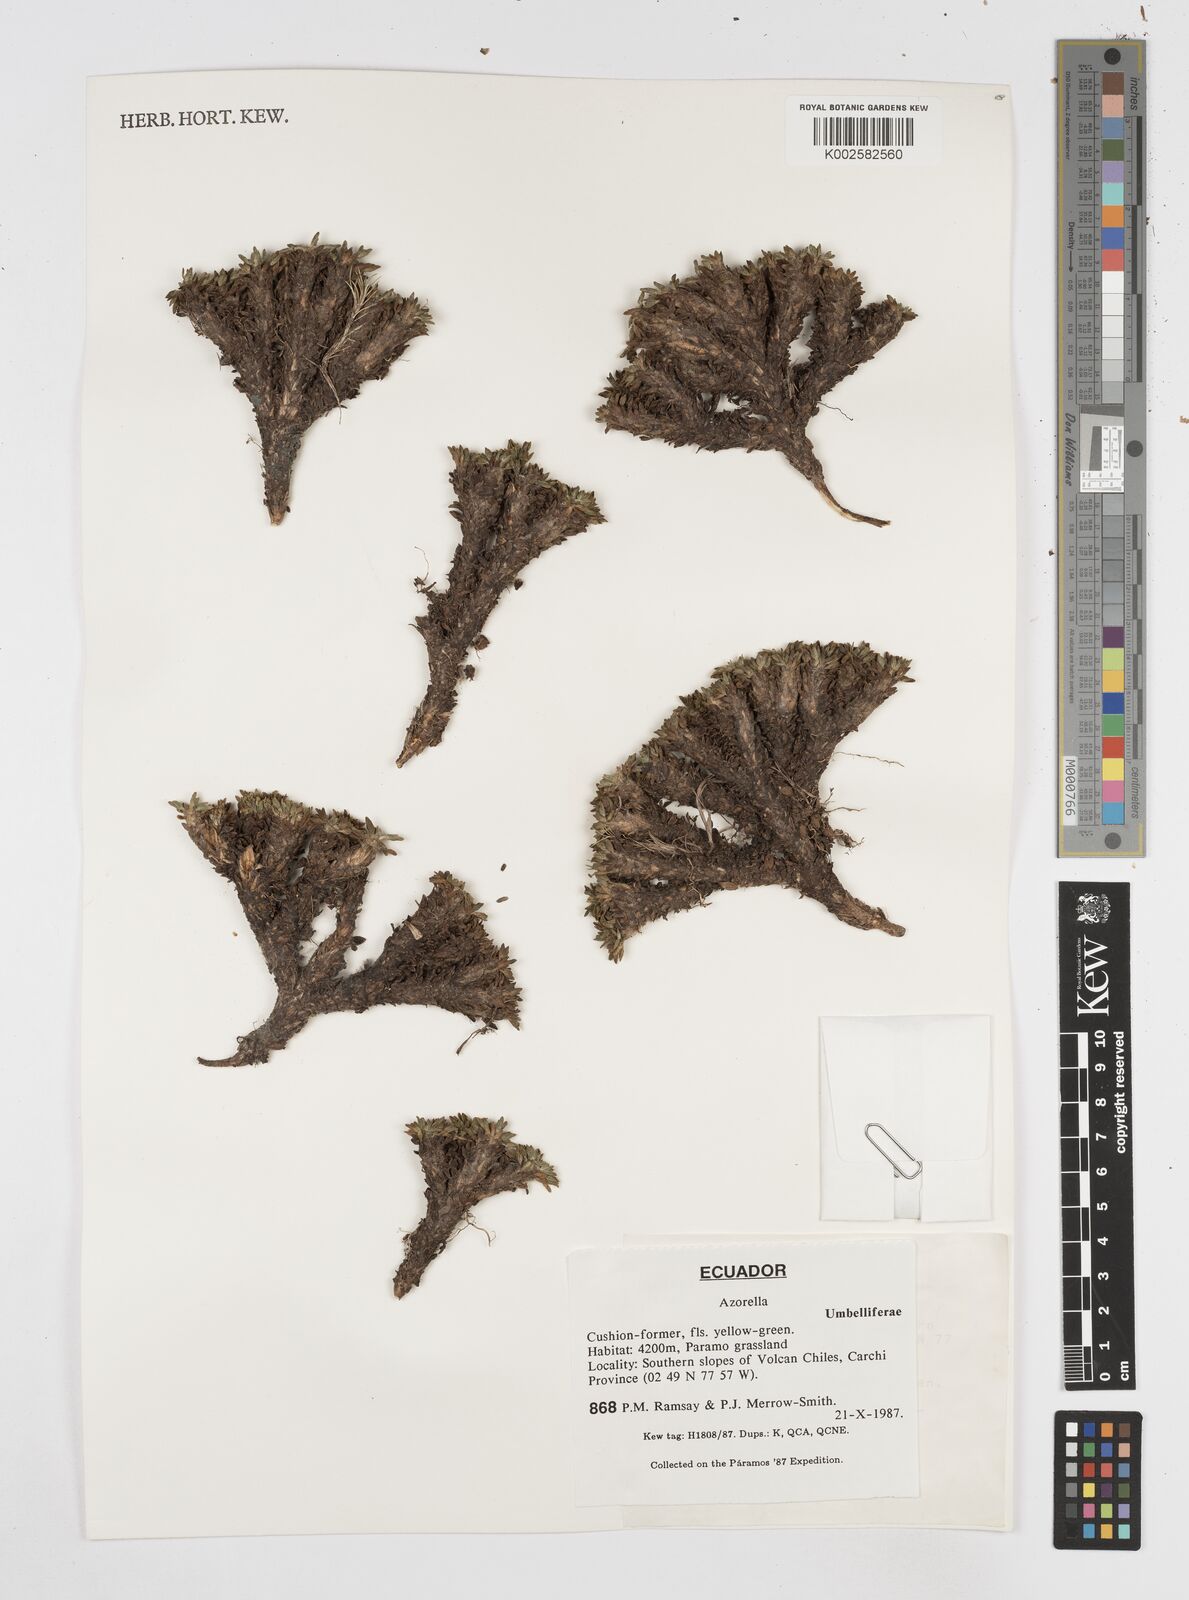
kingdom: Plantae
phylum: Tracheophyta
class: Magnoliopsida
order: Apiales
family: Apiaceae
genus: Azorella
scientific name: Azorella
